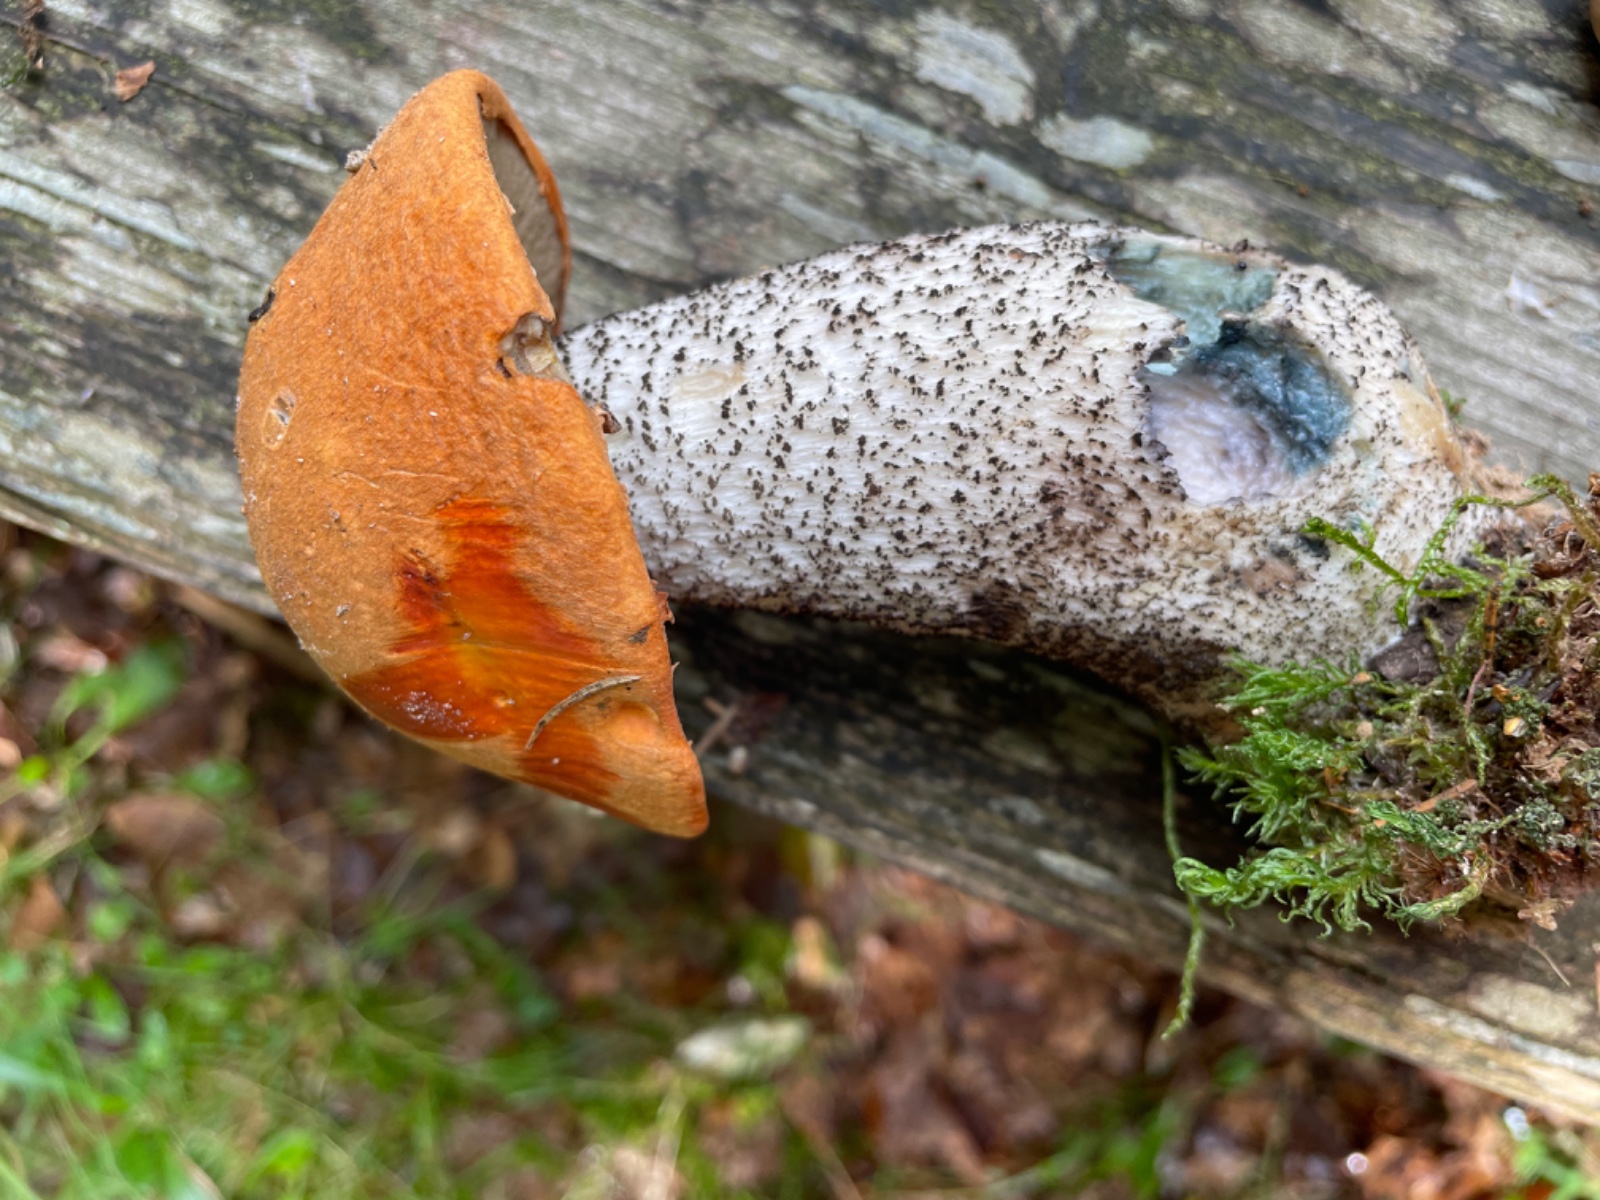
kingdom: Fungi
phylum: Basidiomycota
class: Agaricomycetes
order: Boletales
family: Boletaceae
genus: Leccinum
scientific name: Leccinum versipelle
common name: orange skælrørhat
